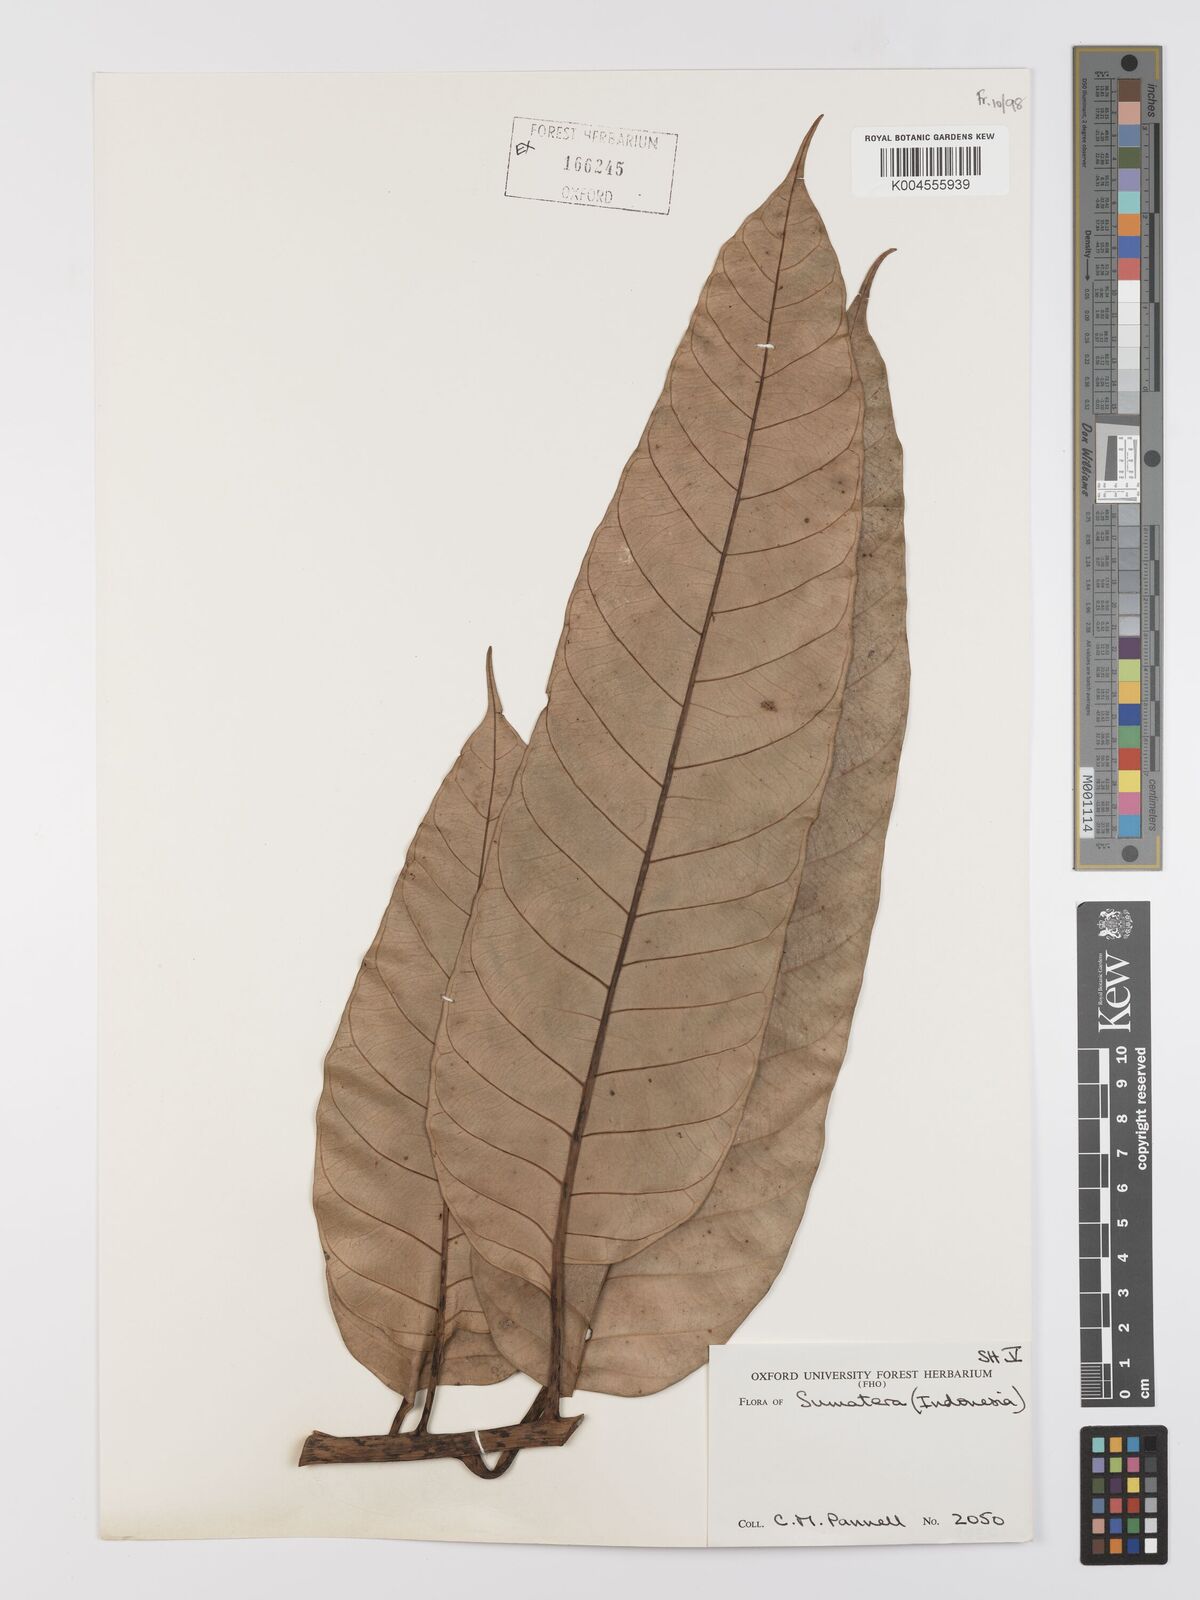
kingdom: Plantae
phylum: Tracheophyta
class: Magnoliopsida
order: Rosales
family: Moraceae
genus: Artocarpus
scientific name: Artocarpus anisophyllus
